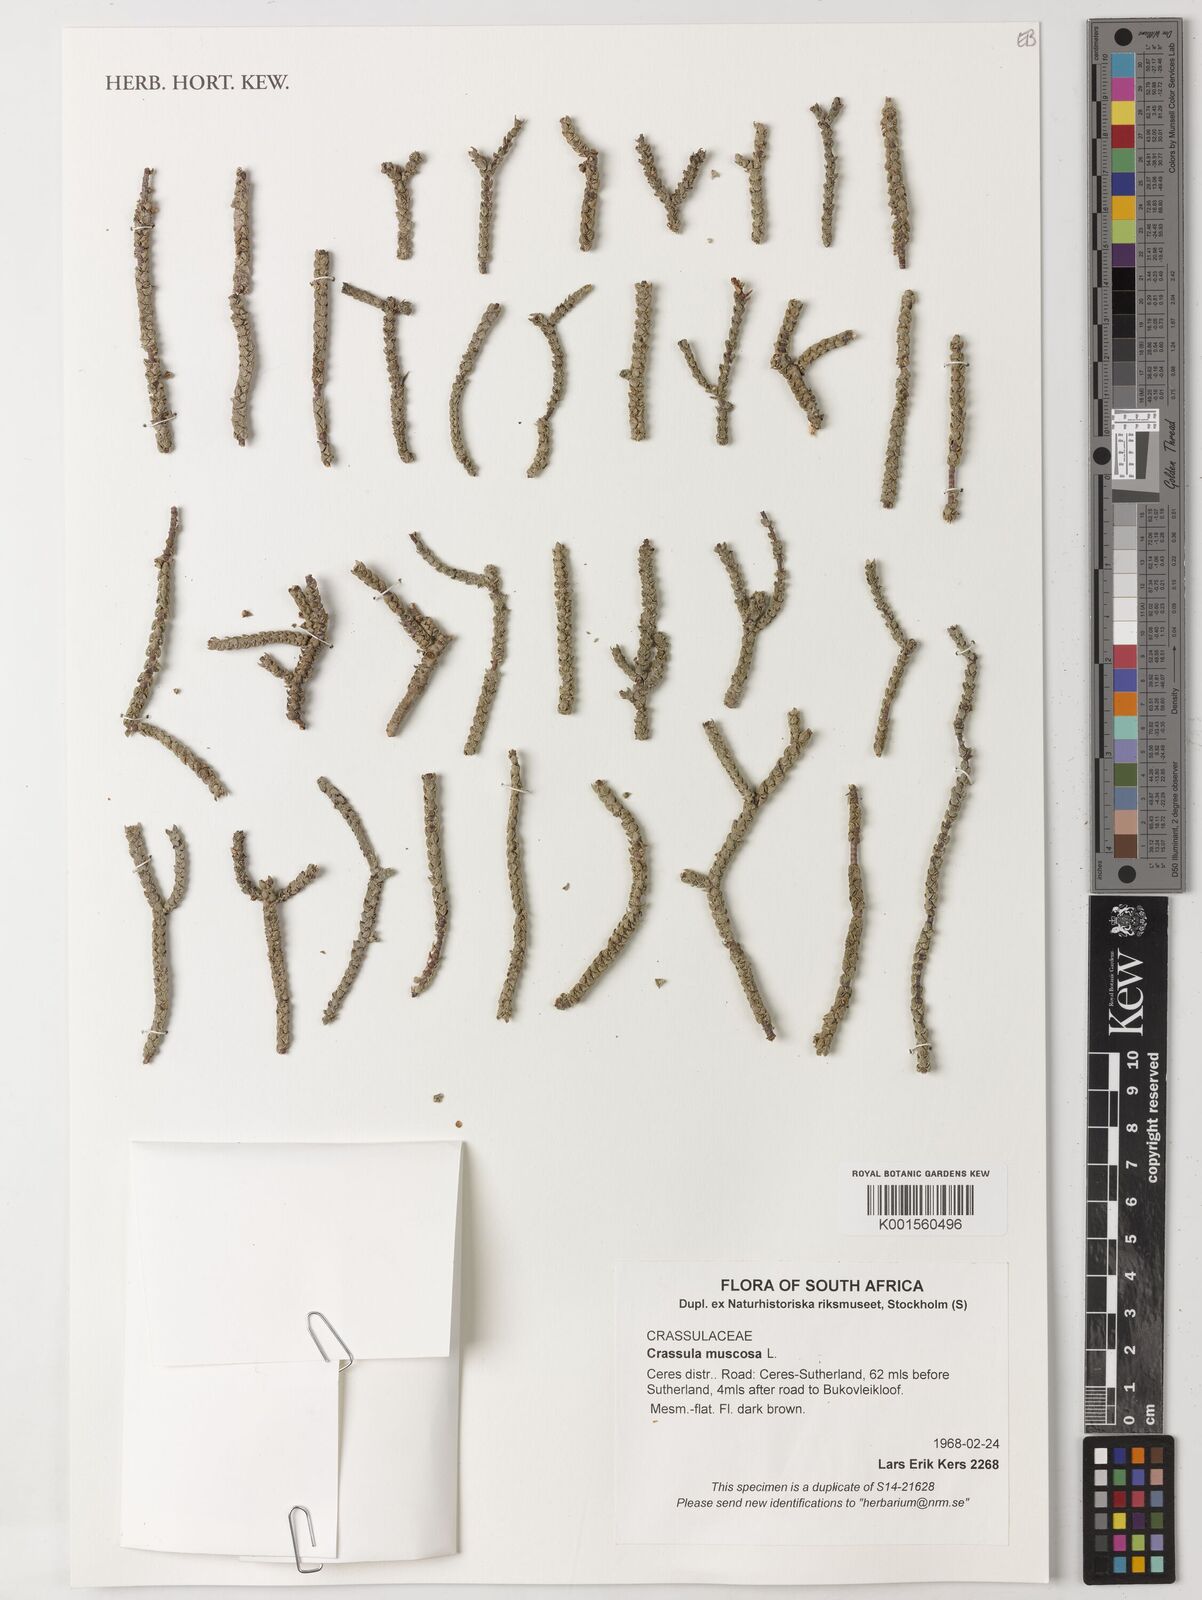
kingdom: Plantae
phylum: Tracheophyta
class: Magnoliopsida
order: Saxifragales
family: Crassulaceae
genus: Crassula
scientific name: Crassula muscosa
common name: Toy-cypress
